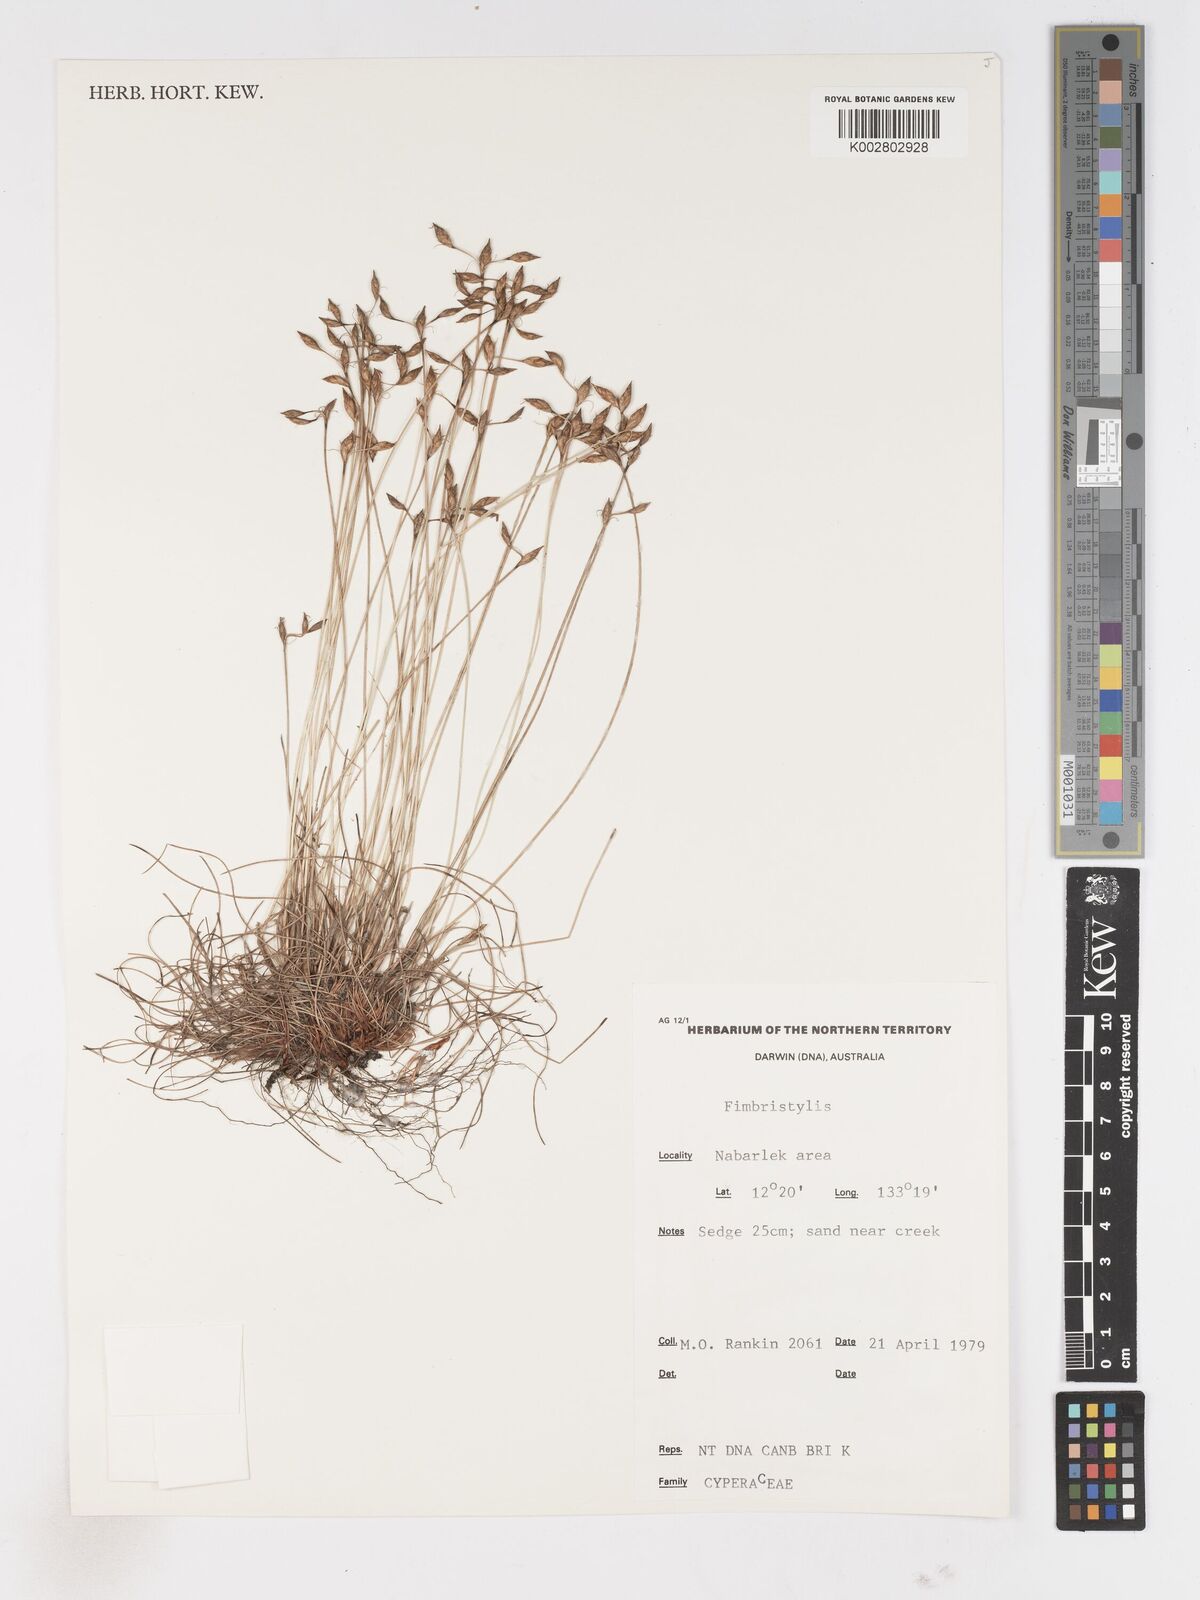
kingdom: Plantae
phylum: Tracheophyta
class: Liliopsida
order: Poales
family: Cyperaceae
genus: Fimbristylis
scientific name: Fimbristylis
